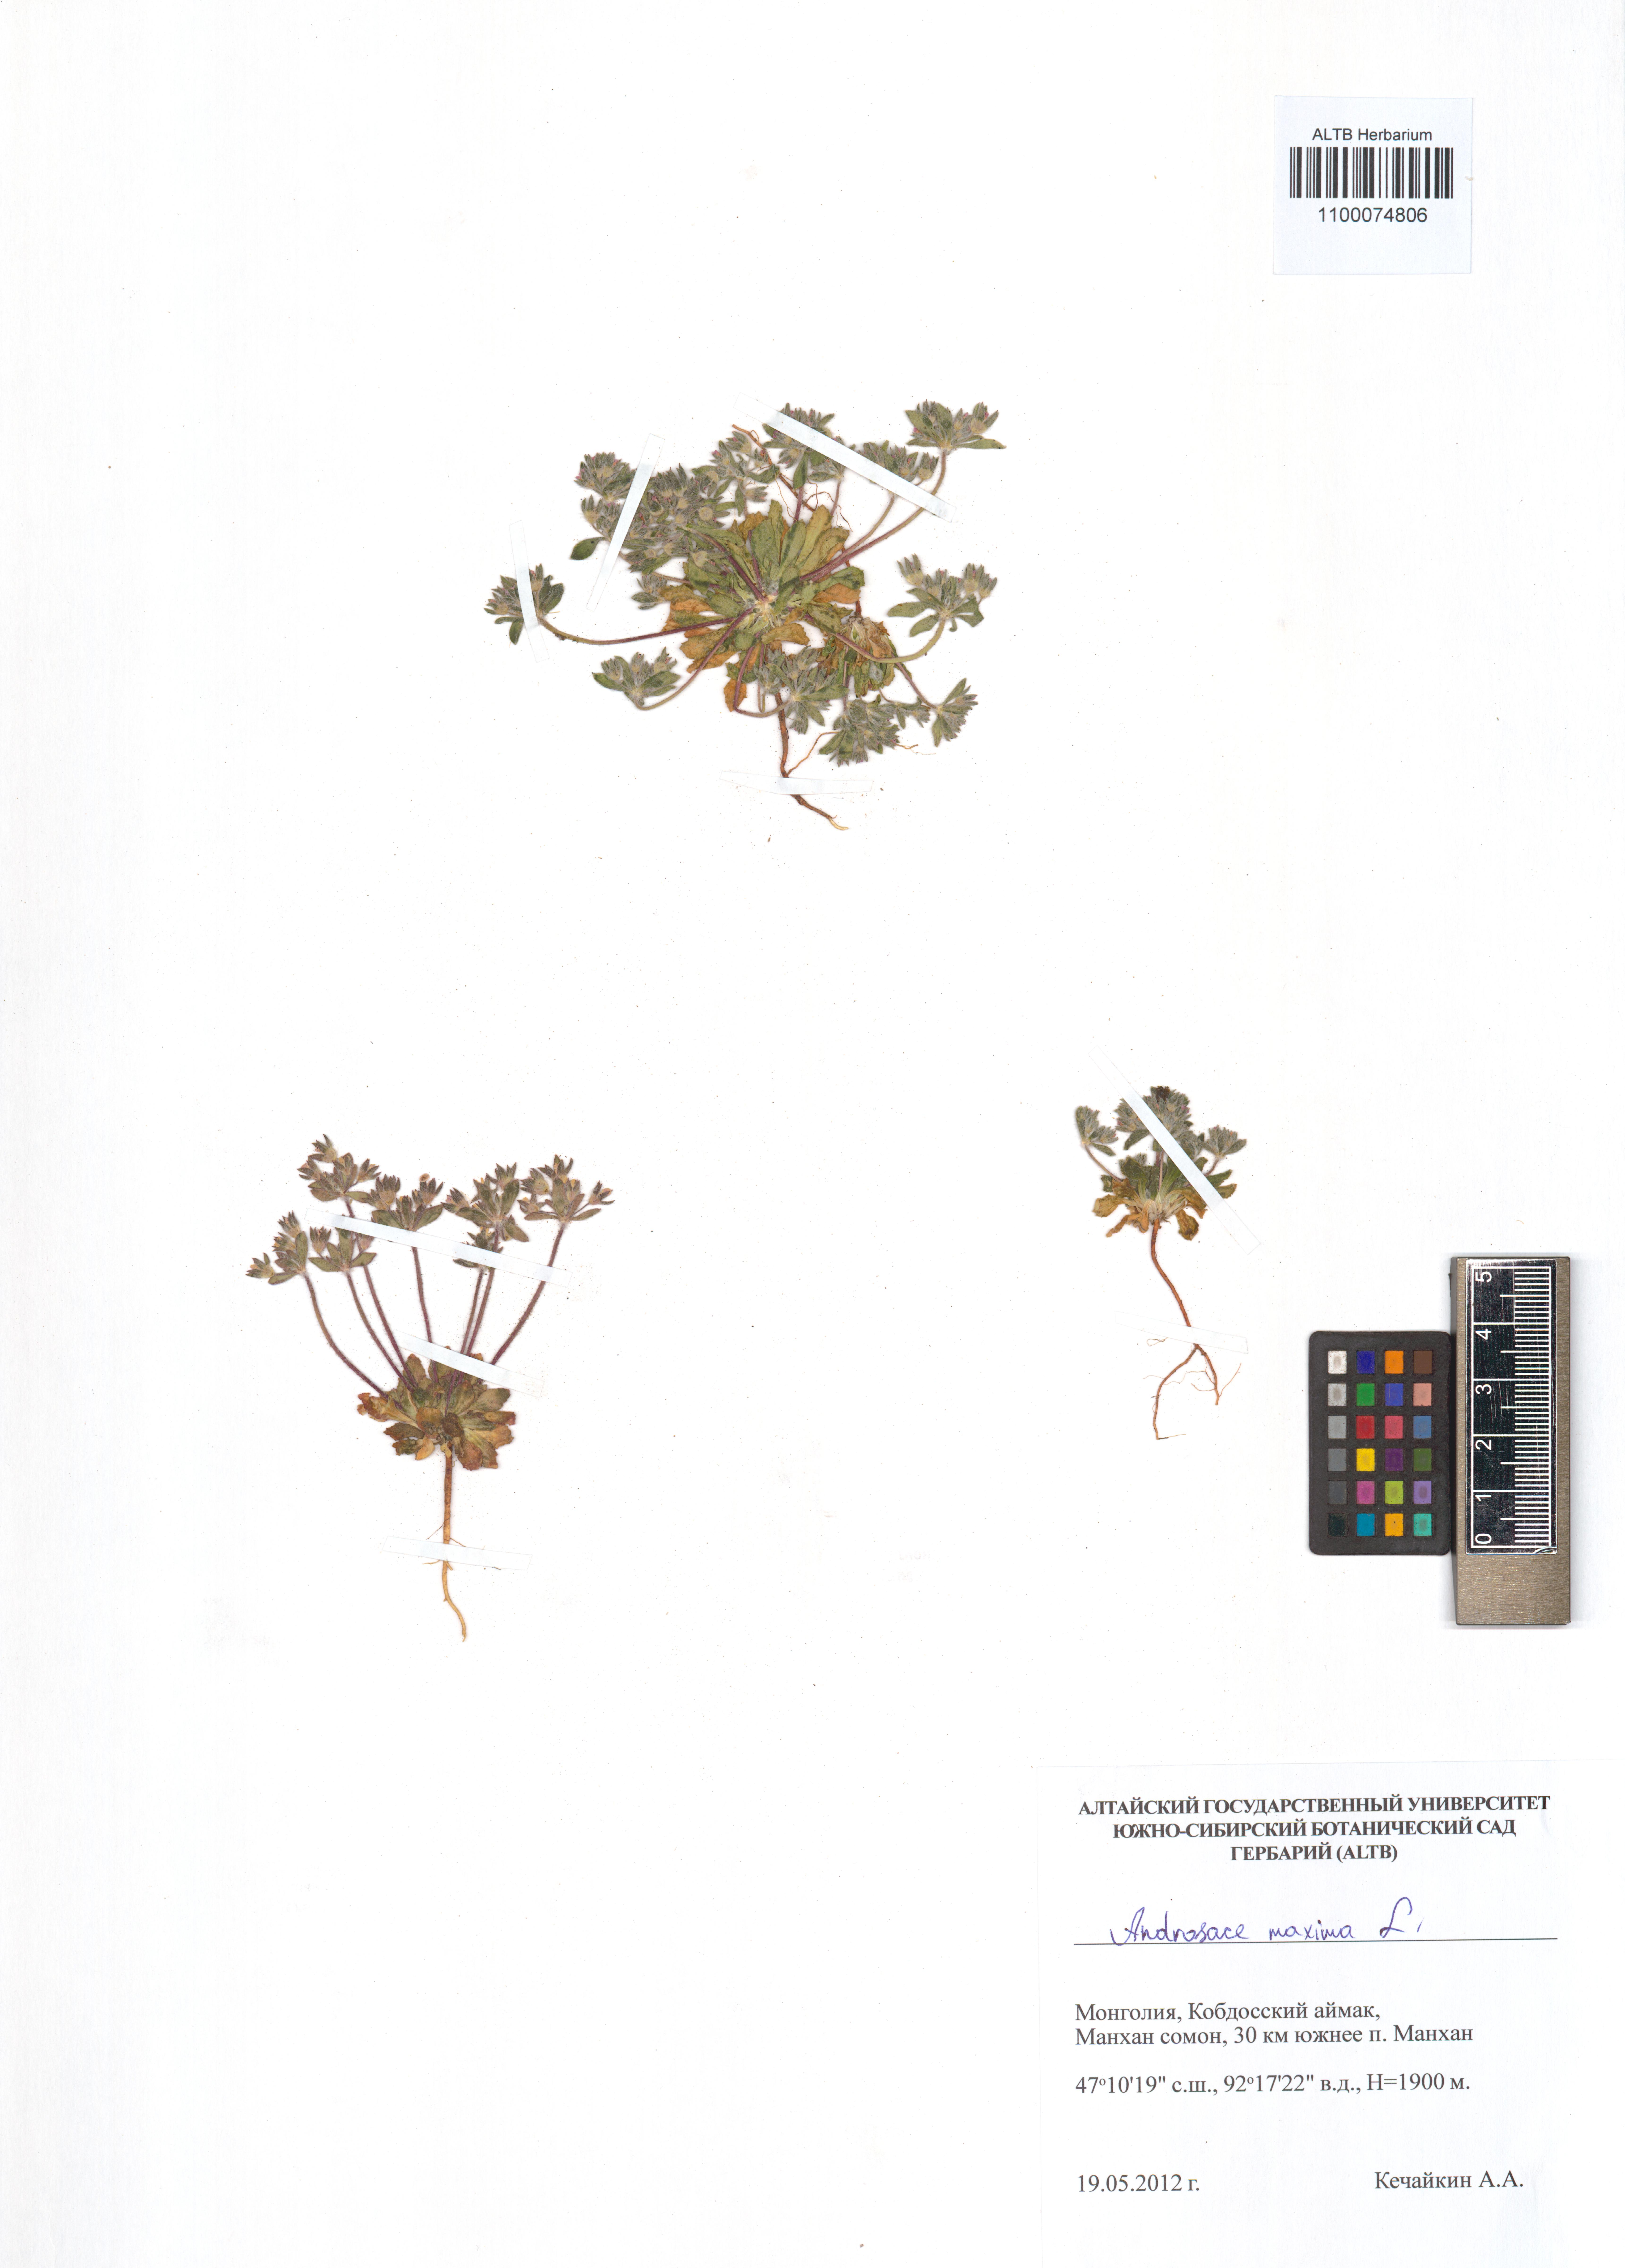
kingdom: Plantae
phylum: Tracheophyta
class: Magnoliopsida
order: Ericales
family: Primulaceae
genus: Androsace
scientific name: Androsace maxima
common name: Annual androsace
